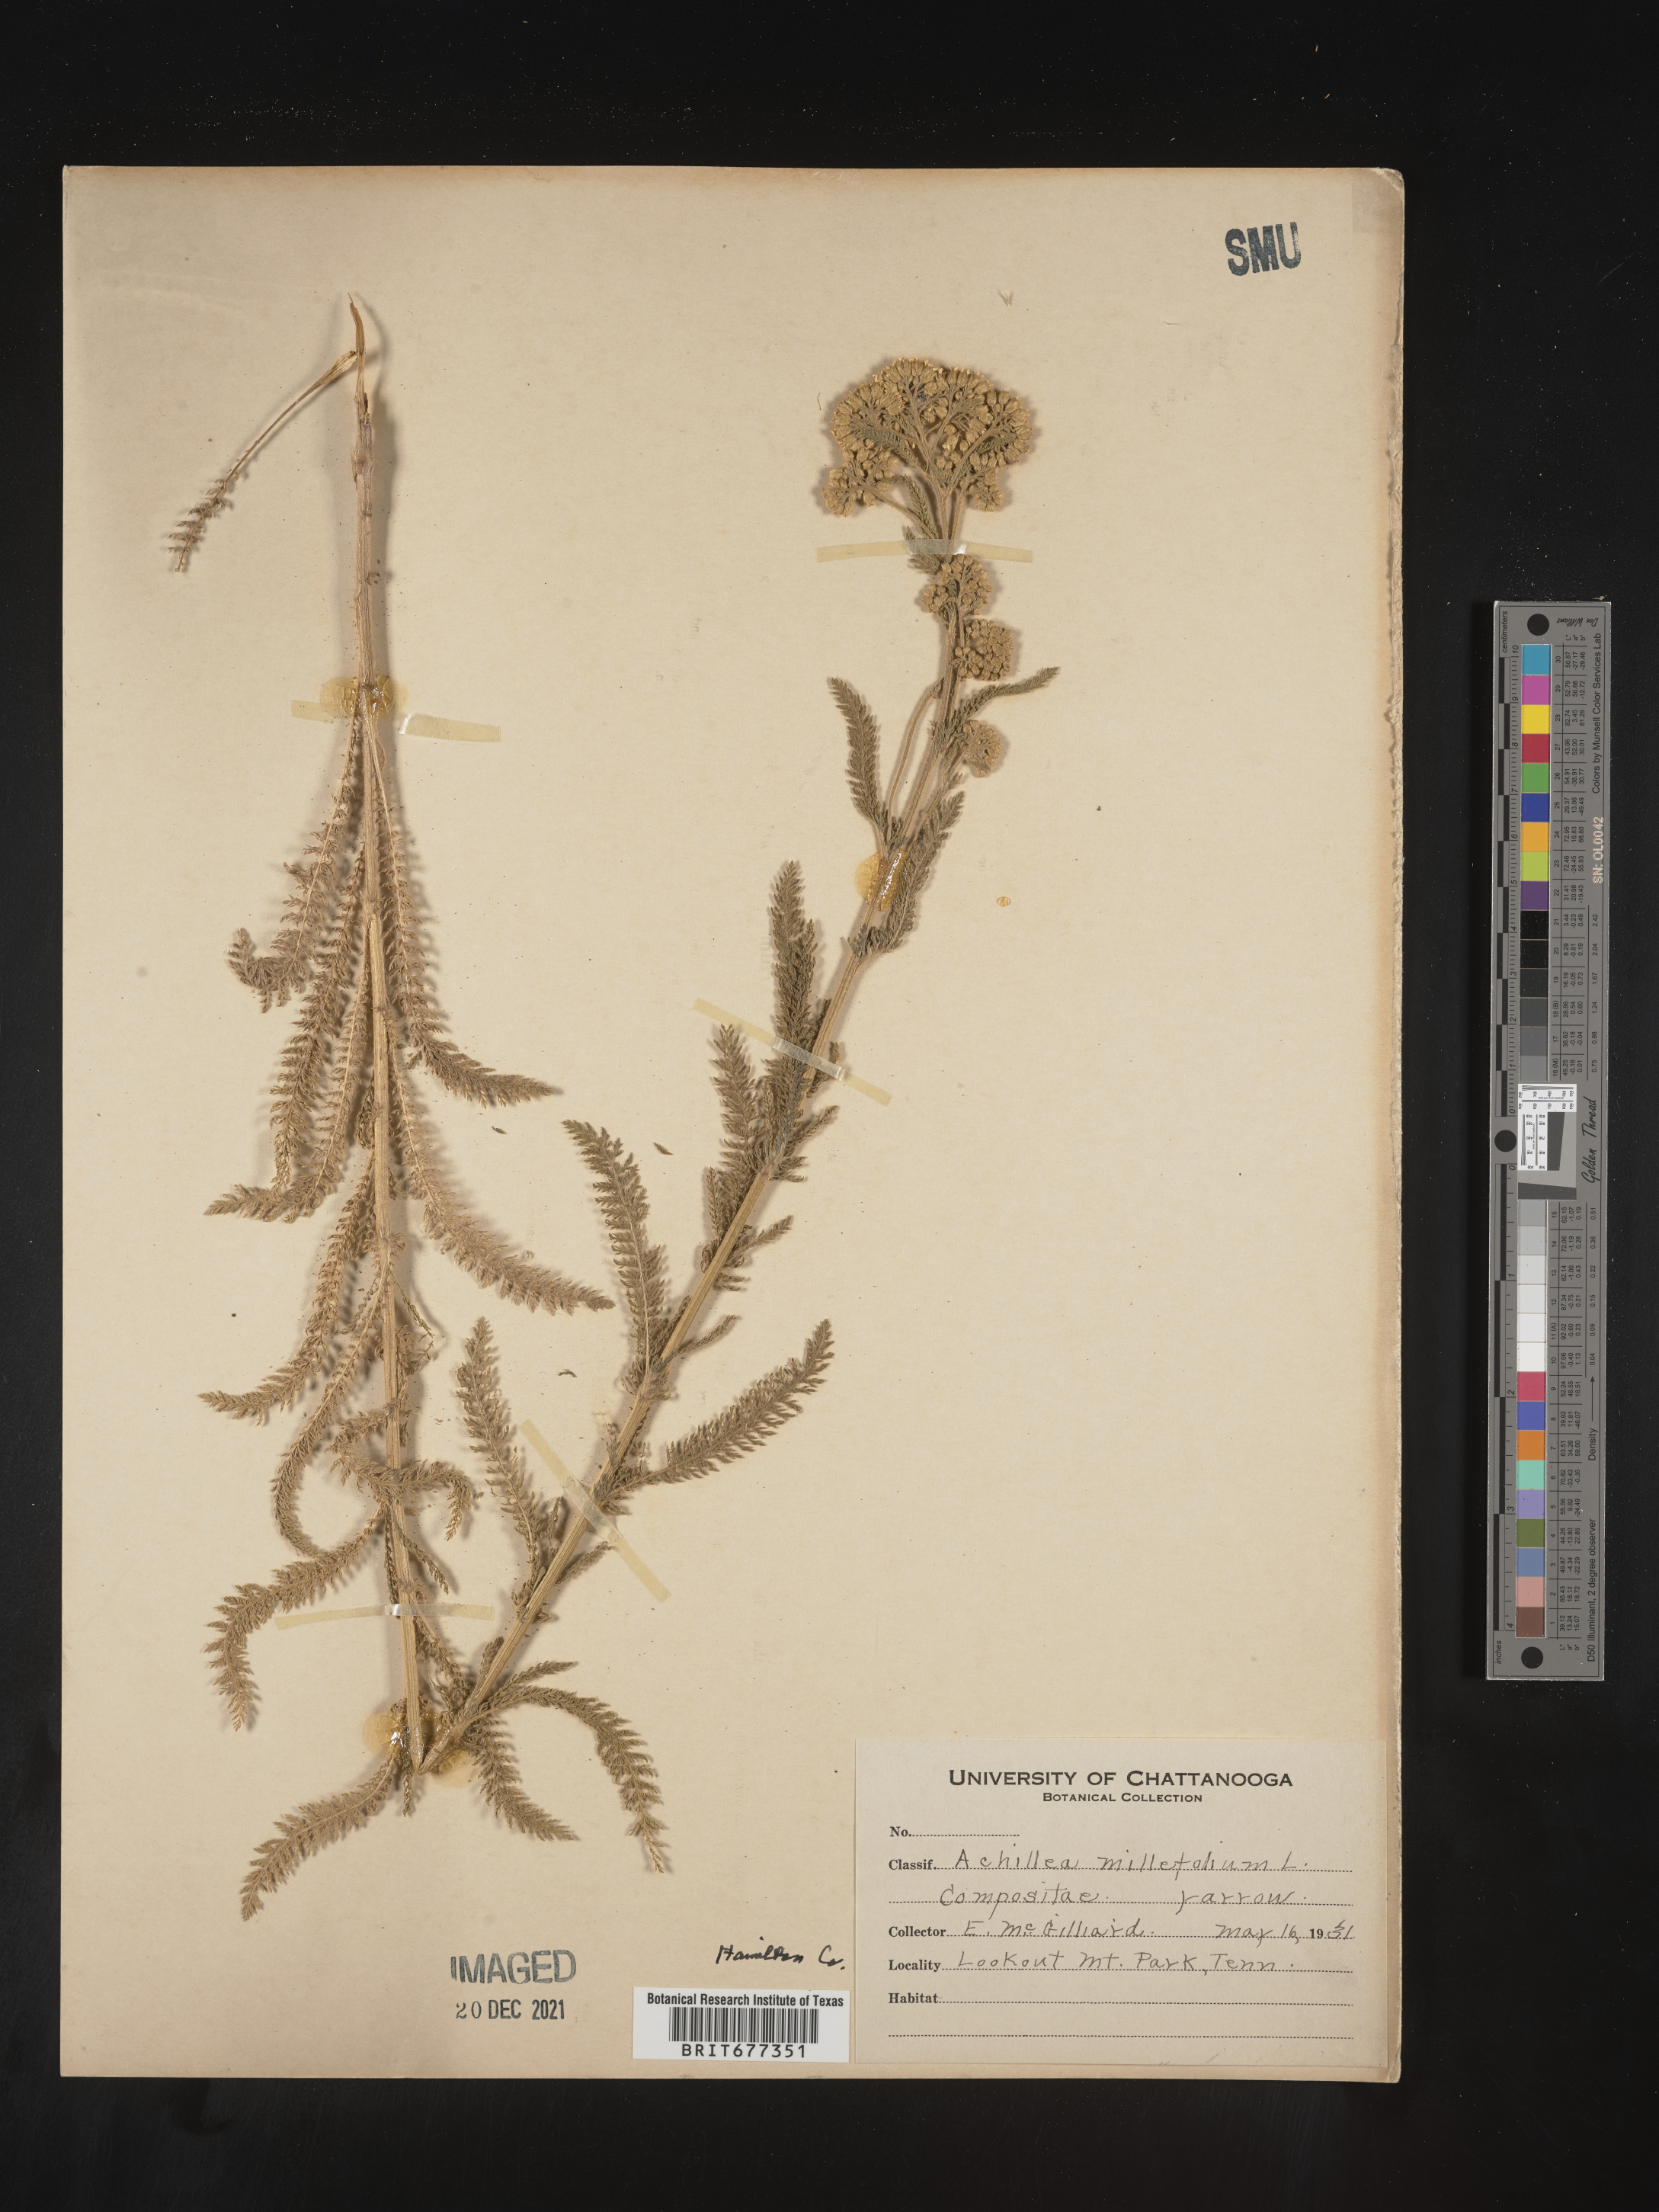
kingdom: Plantae
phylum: Tracheophyta
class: Magnoliopsida
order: Asterales
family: Asteraceae
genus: Achillea
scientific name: Achillea millefolium
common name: Yarrow
